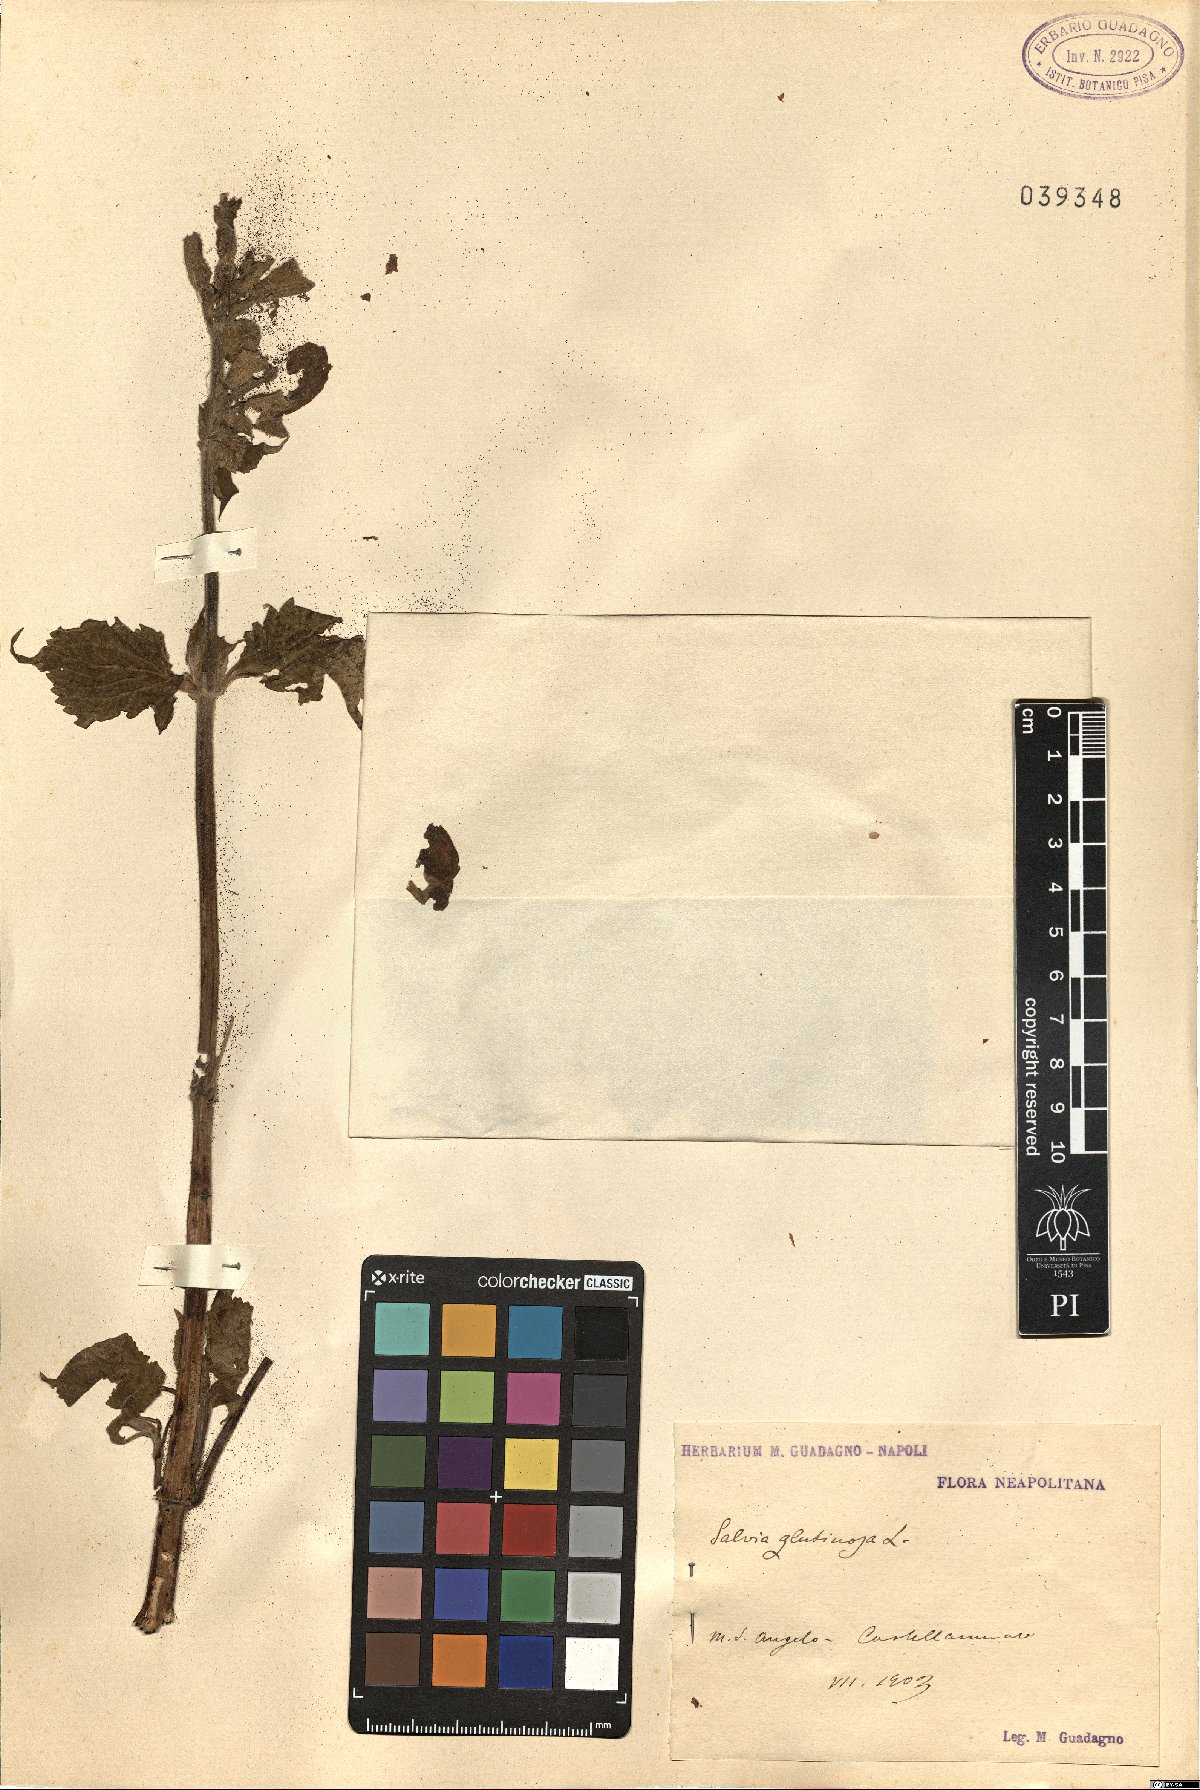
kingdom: Plantae
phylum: Tracheophyta
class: Magnoliopsida
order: Lamiales
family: Lamiaceae
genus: Salvia
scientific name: Salvia glutinosa
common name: Sticky clary
